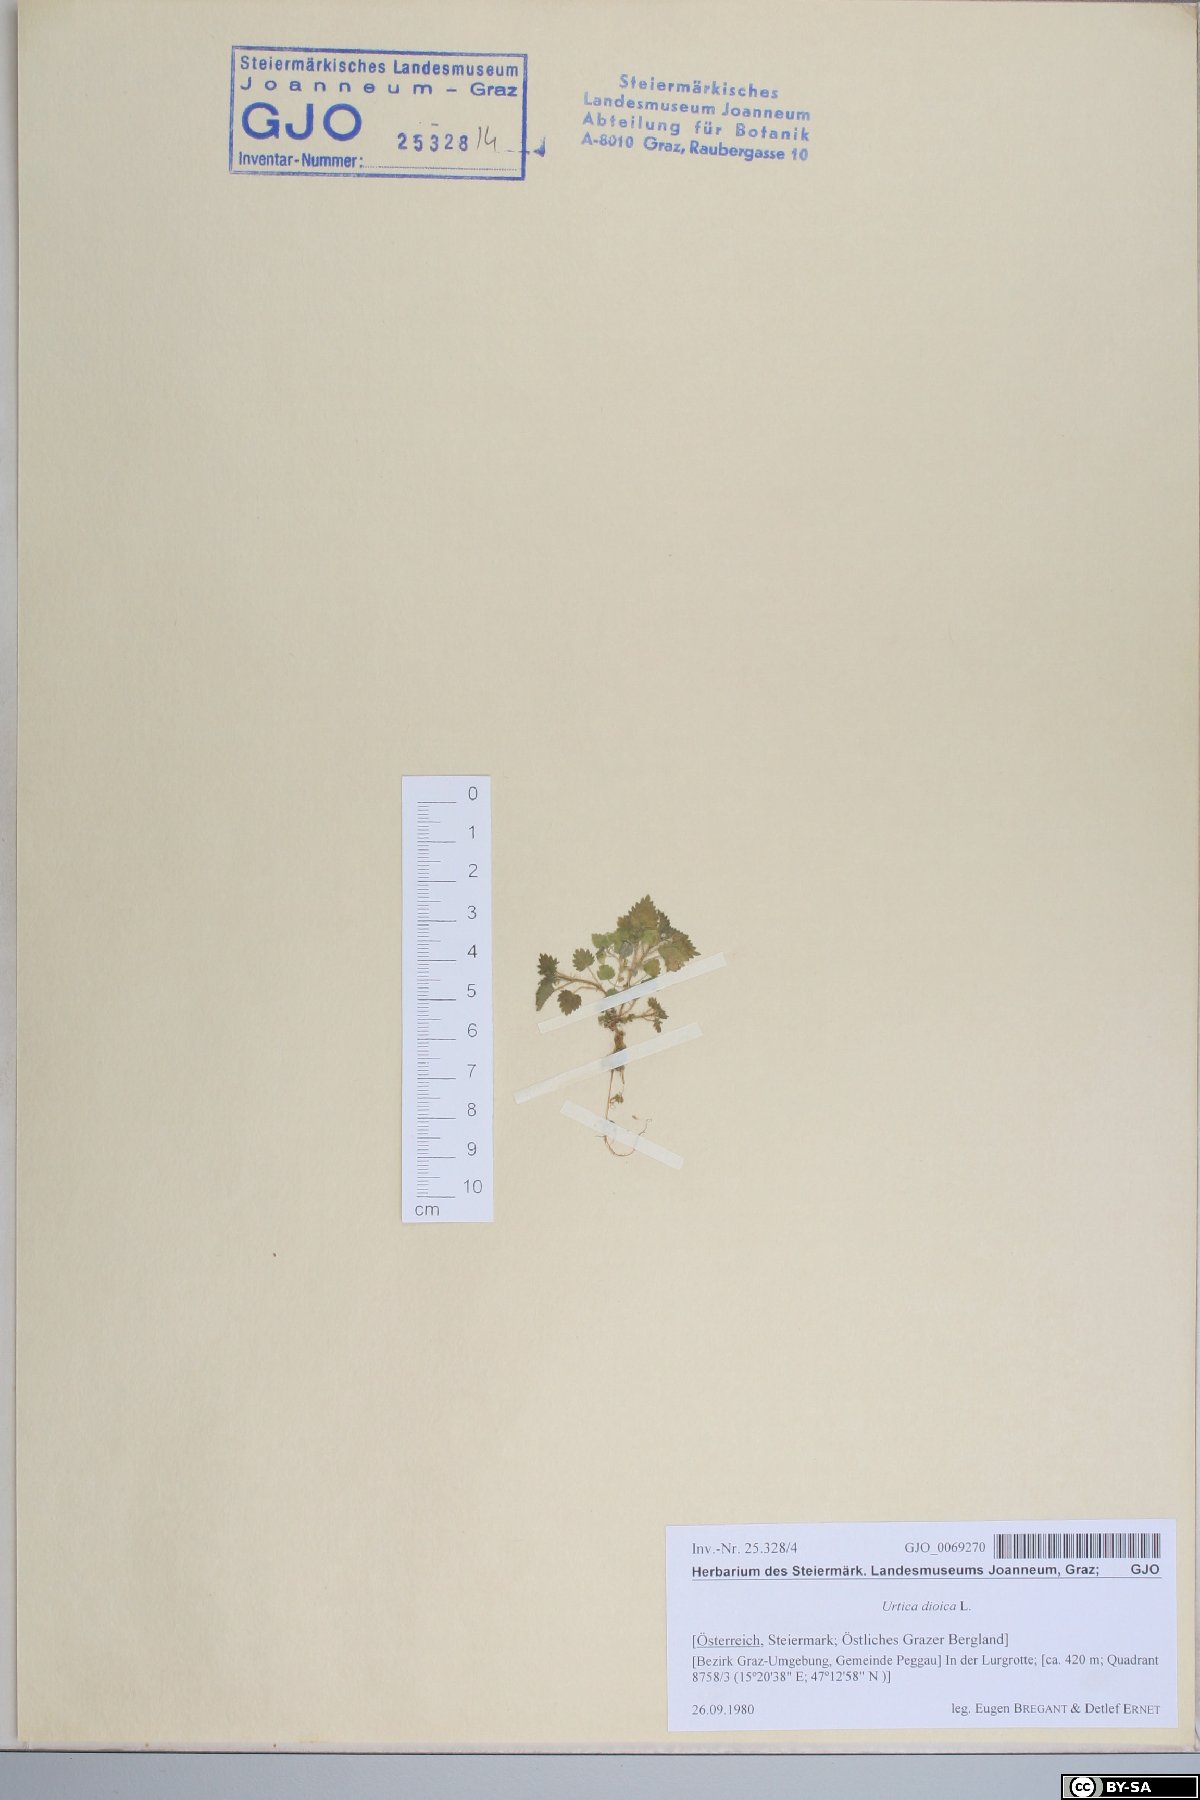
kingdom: Plantae
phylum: Tracheophyta
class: Magnoliopsida
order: Rosales
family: Urticaceae
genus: Urtica
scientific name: Urtica dioica
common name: Common nettle
